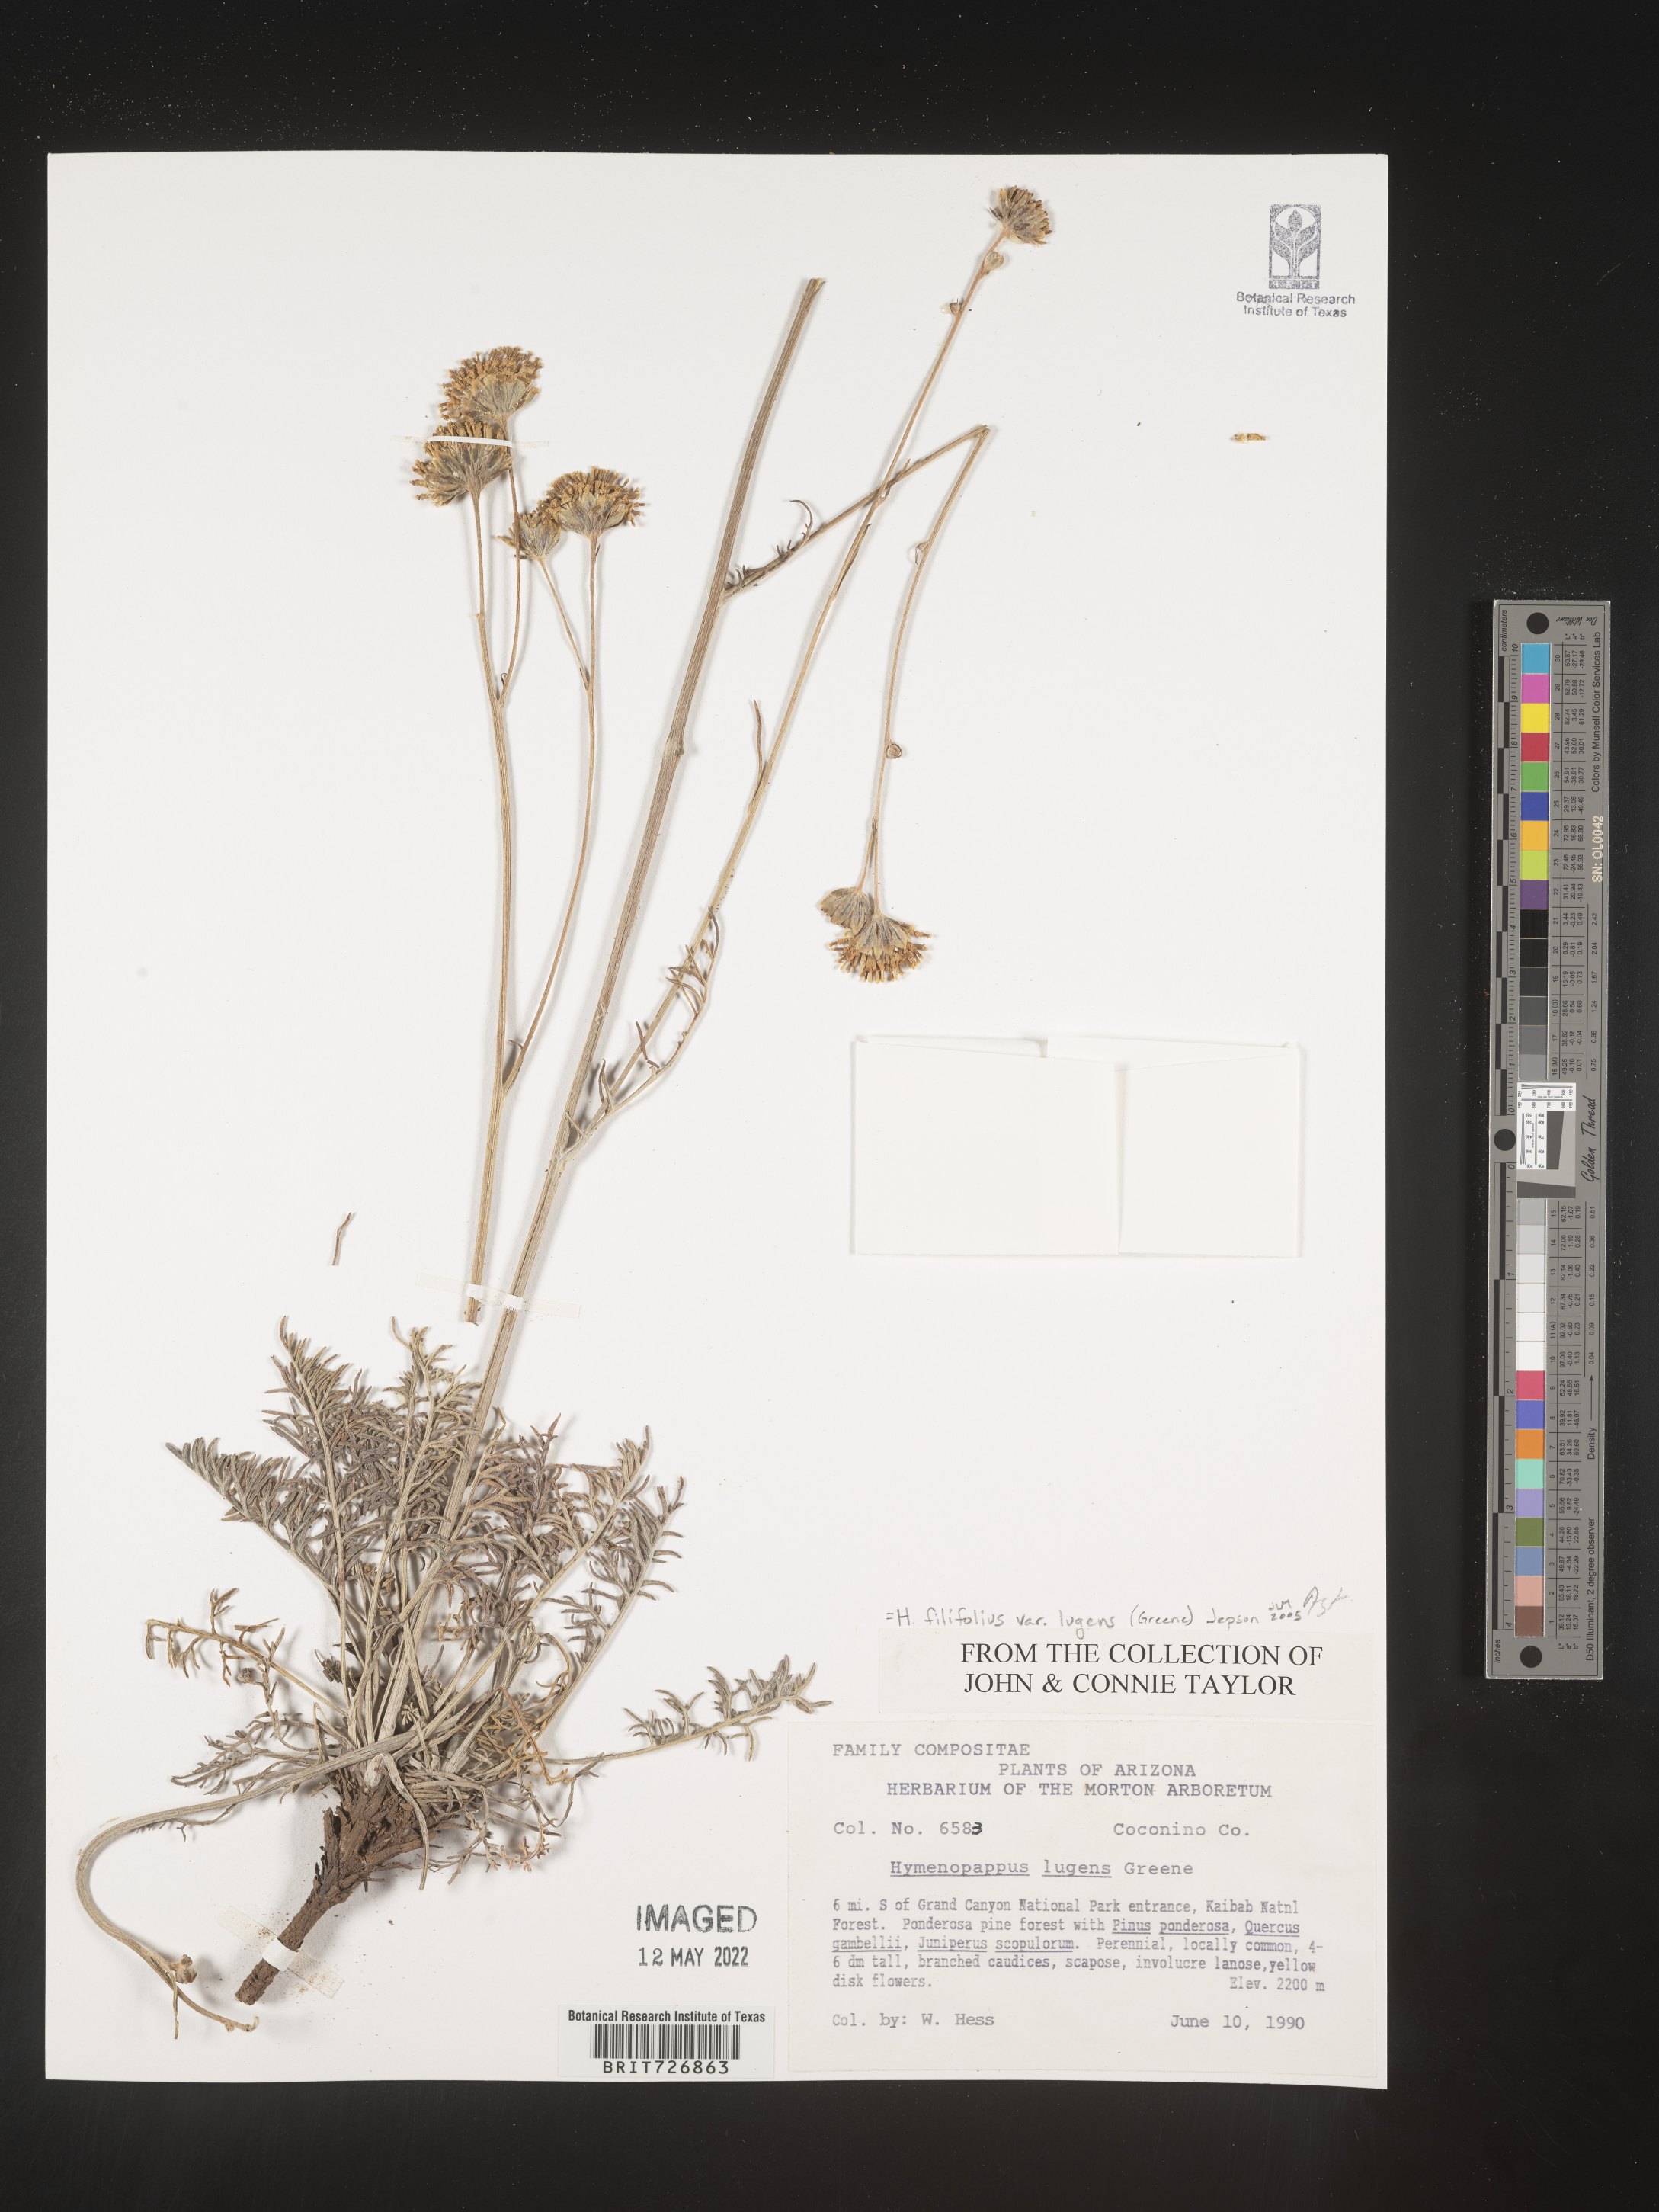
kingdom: Plantae
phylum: Tracheophyta
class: Magnoliopsida
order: Asterales
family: Asteraceae
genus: Hymenopappus
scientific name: Hymenopappus filifolius
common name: Columbia cutleaf
